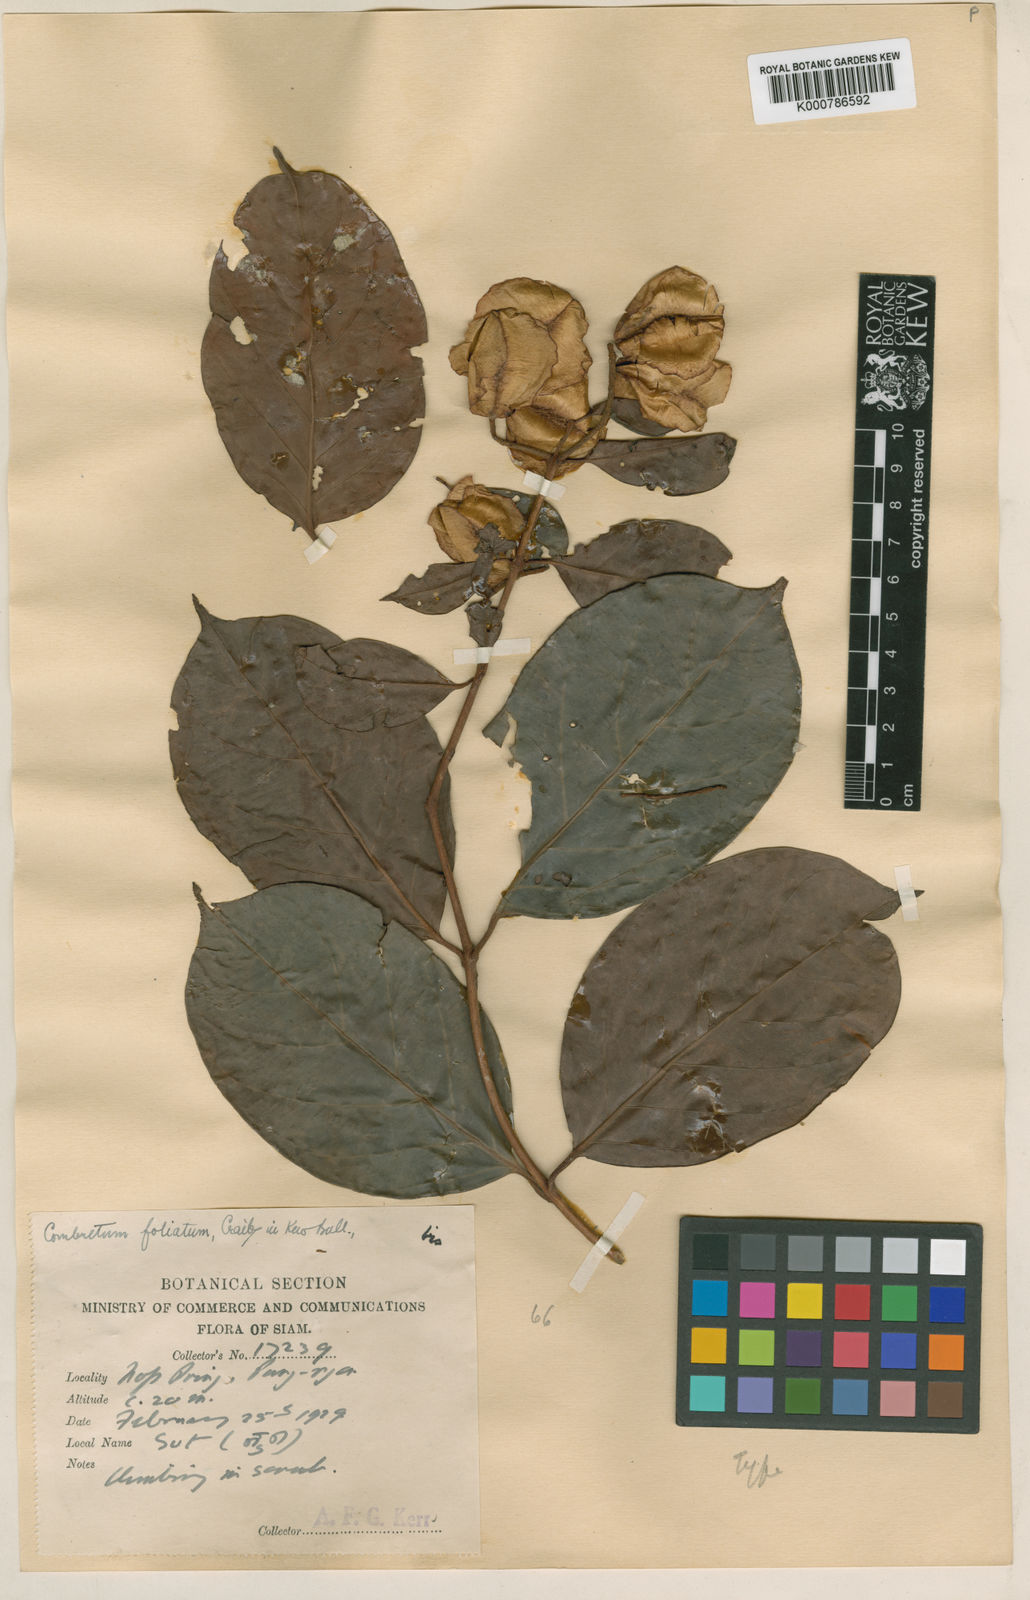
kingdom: Plantae
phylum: Tracheophyta
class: Magnoliopsida
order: Myrtales
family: Combretaceae
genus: Combretum
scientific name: Combretum punctatum
